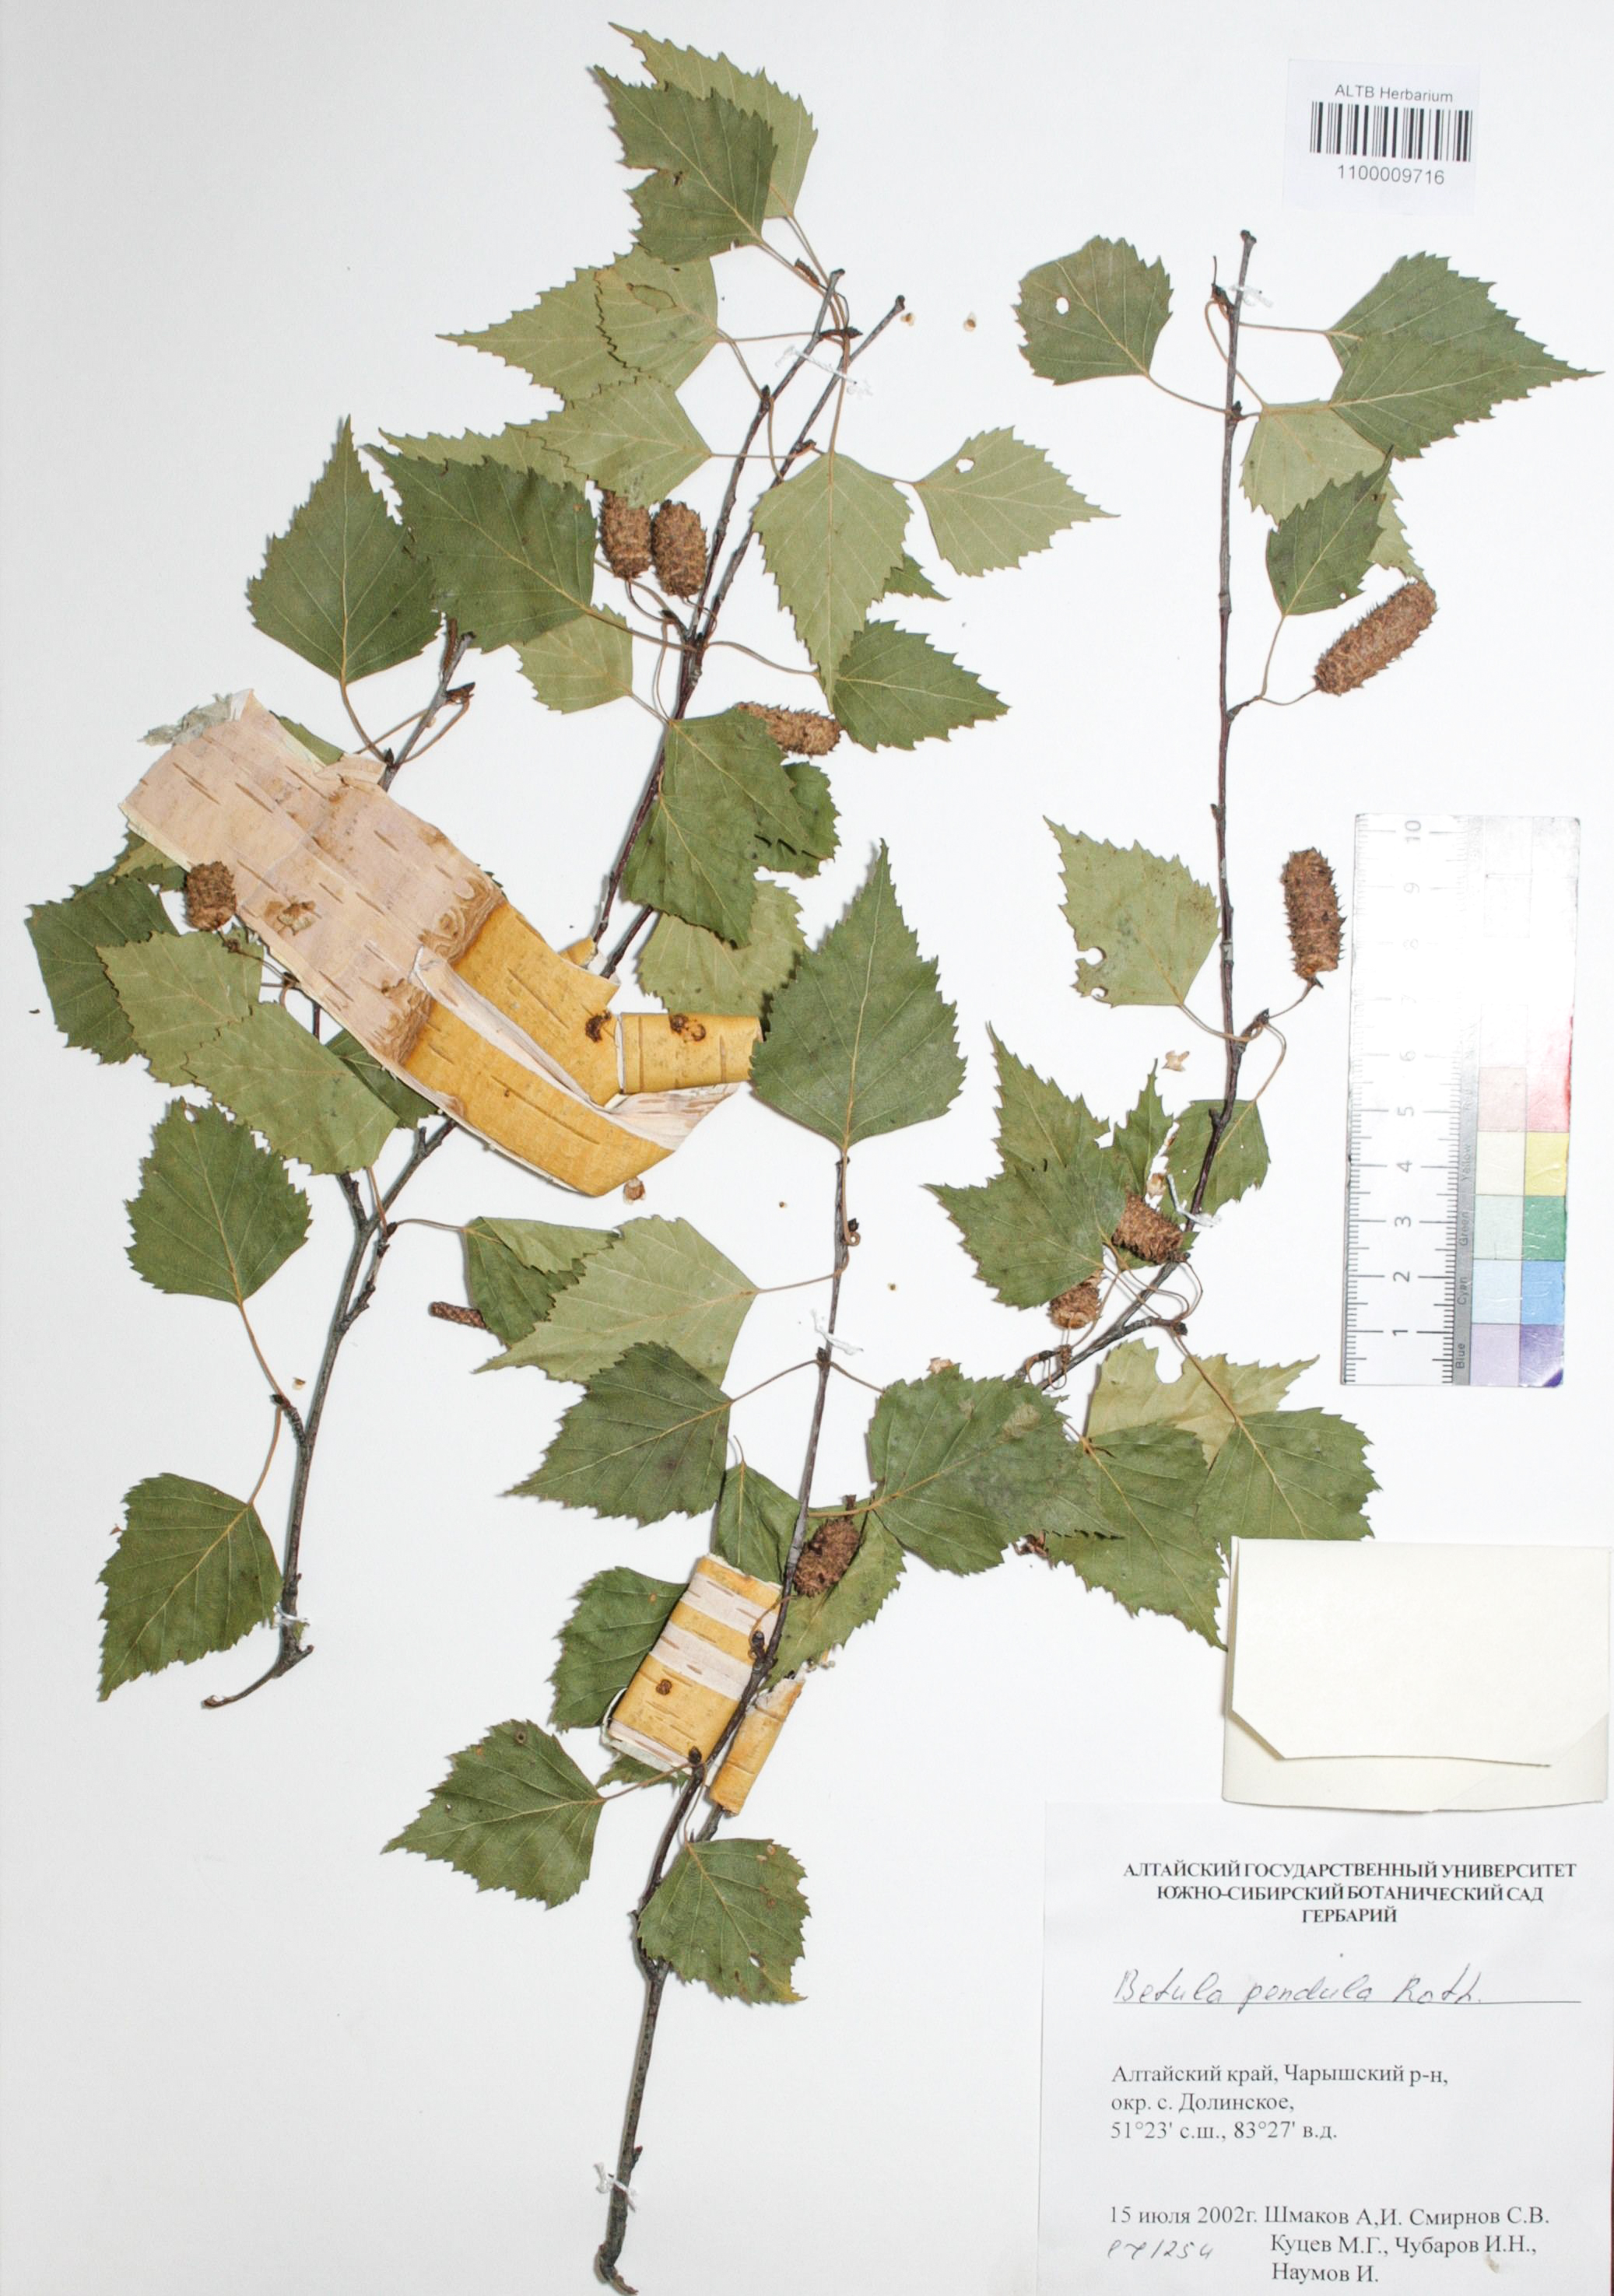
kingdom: Plantae
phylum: Tracheophyta
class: Magnoliopsida
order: Fagales
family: Betulaceae
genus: Betula
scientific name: Betula pendula
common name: Silver birch
